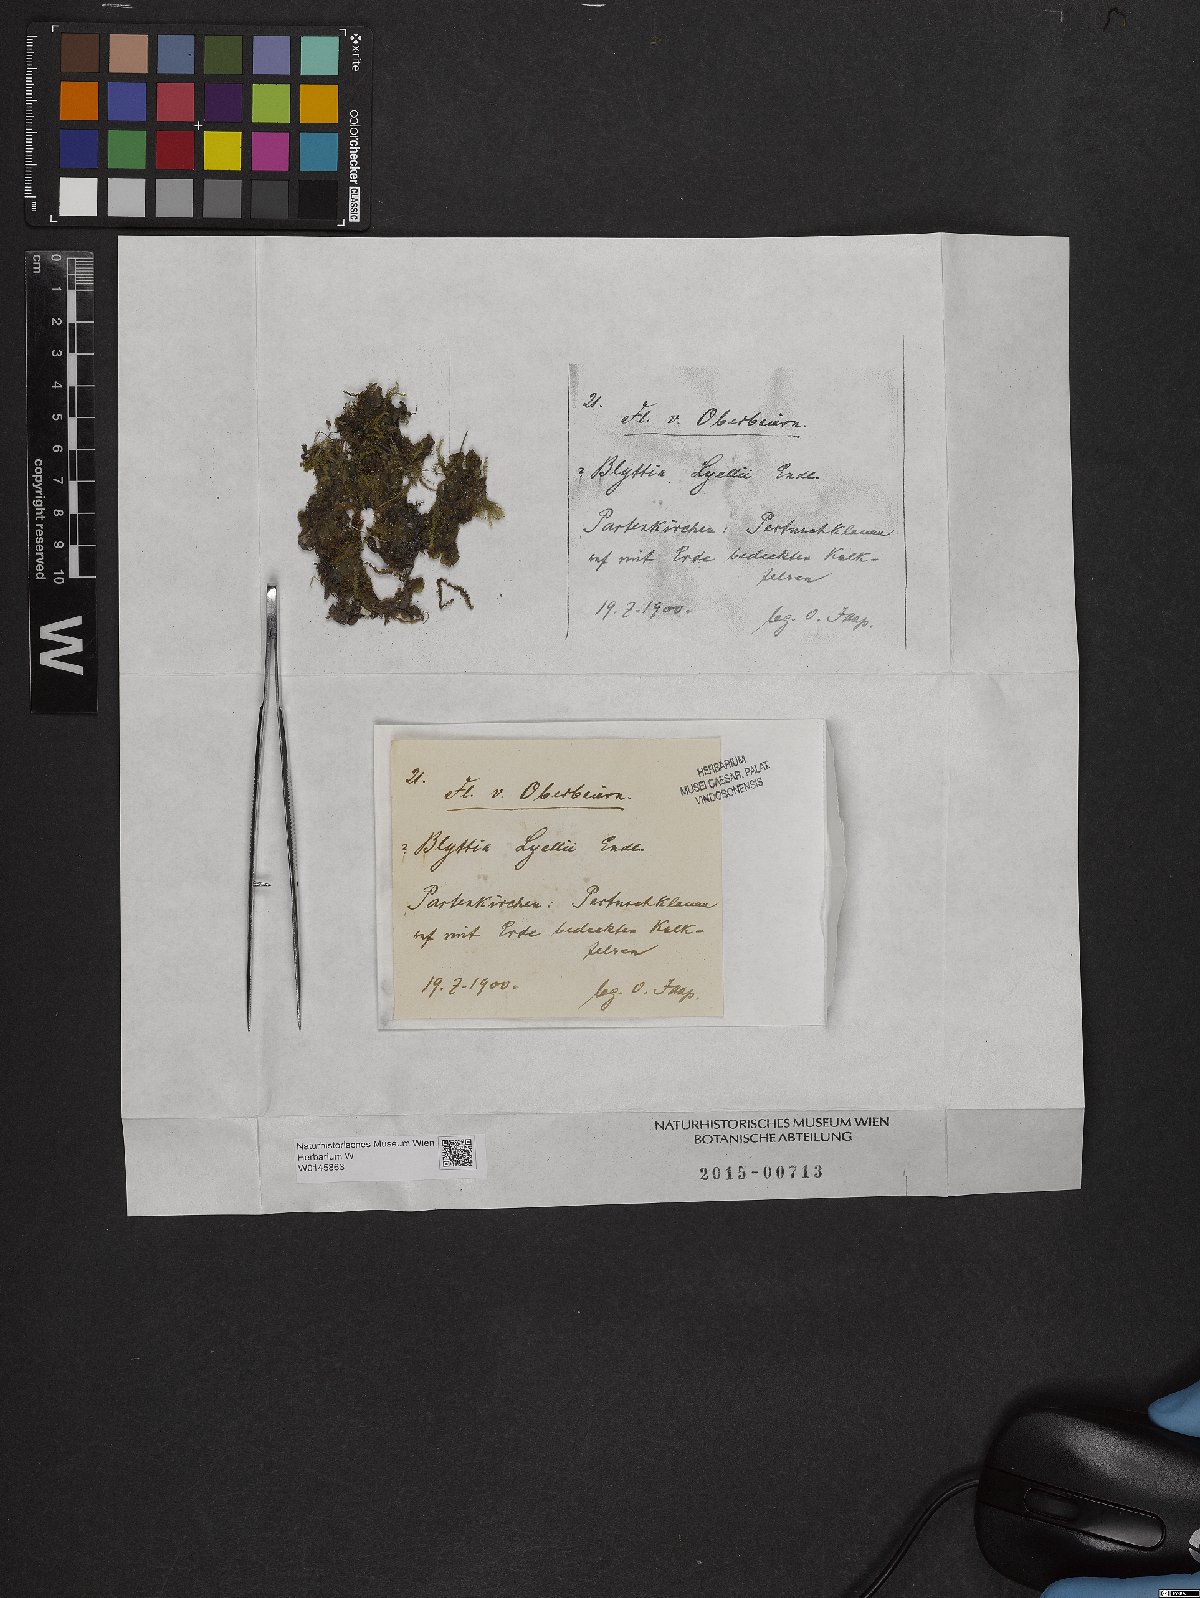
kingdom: Plantae
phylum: Marchantiophyta
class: Jungermanniopsida
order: Pallaviciniales
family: Pallaviciniaceae
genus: Pallavicinia
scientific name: Pallavicinia lyellii
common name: Veilwort
